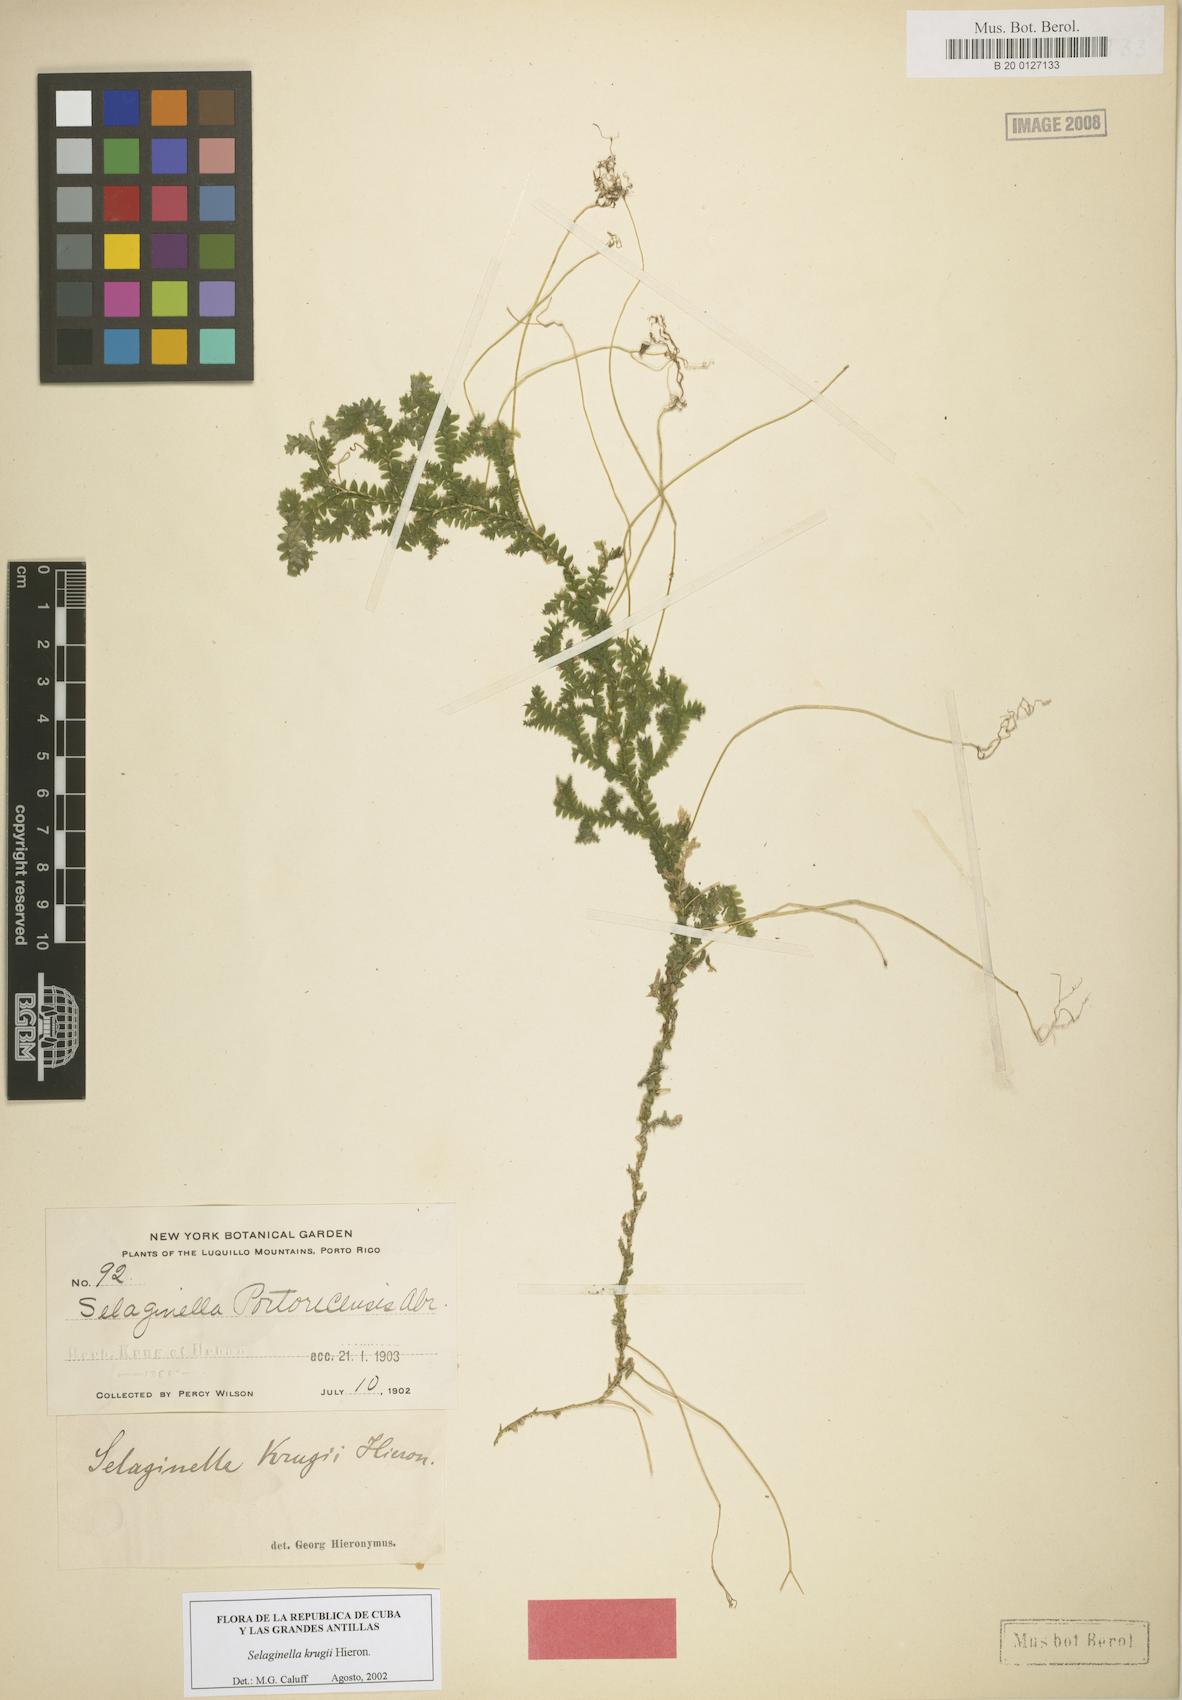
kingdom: Plantae
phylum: Tracheophyta
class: Lycopodiopsida
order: Selaginellales
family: Selaginellaceae
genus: Selaginella
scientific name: Selaginella krugii
